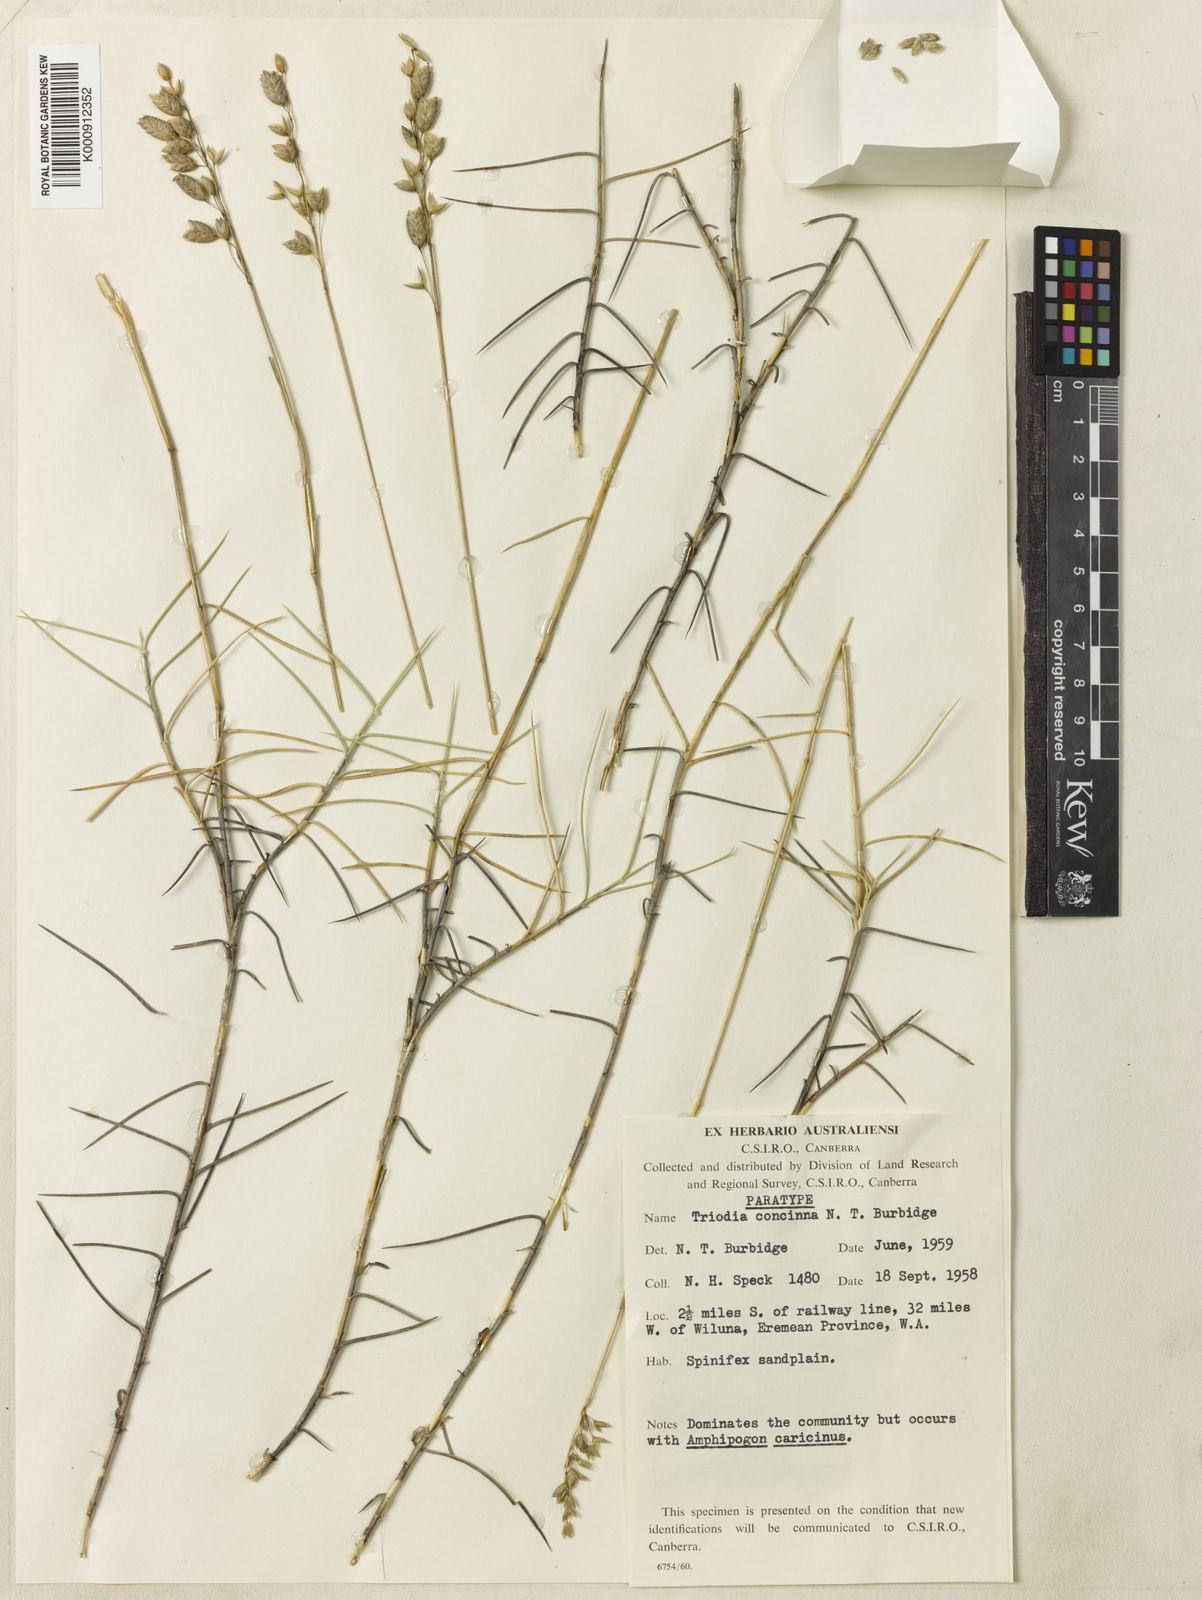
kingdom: Plantae
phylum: Tracheophyta
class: Liliopsida
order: Poales
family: Poaceae
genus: Triodia
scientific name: Triodia concinna
